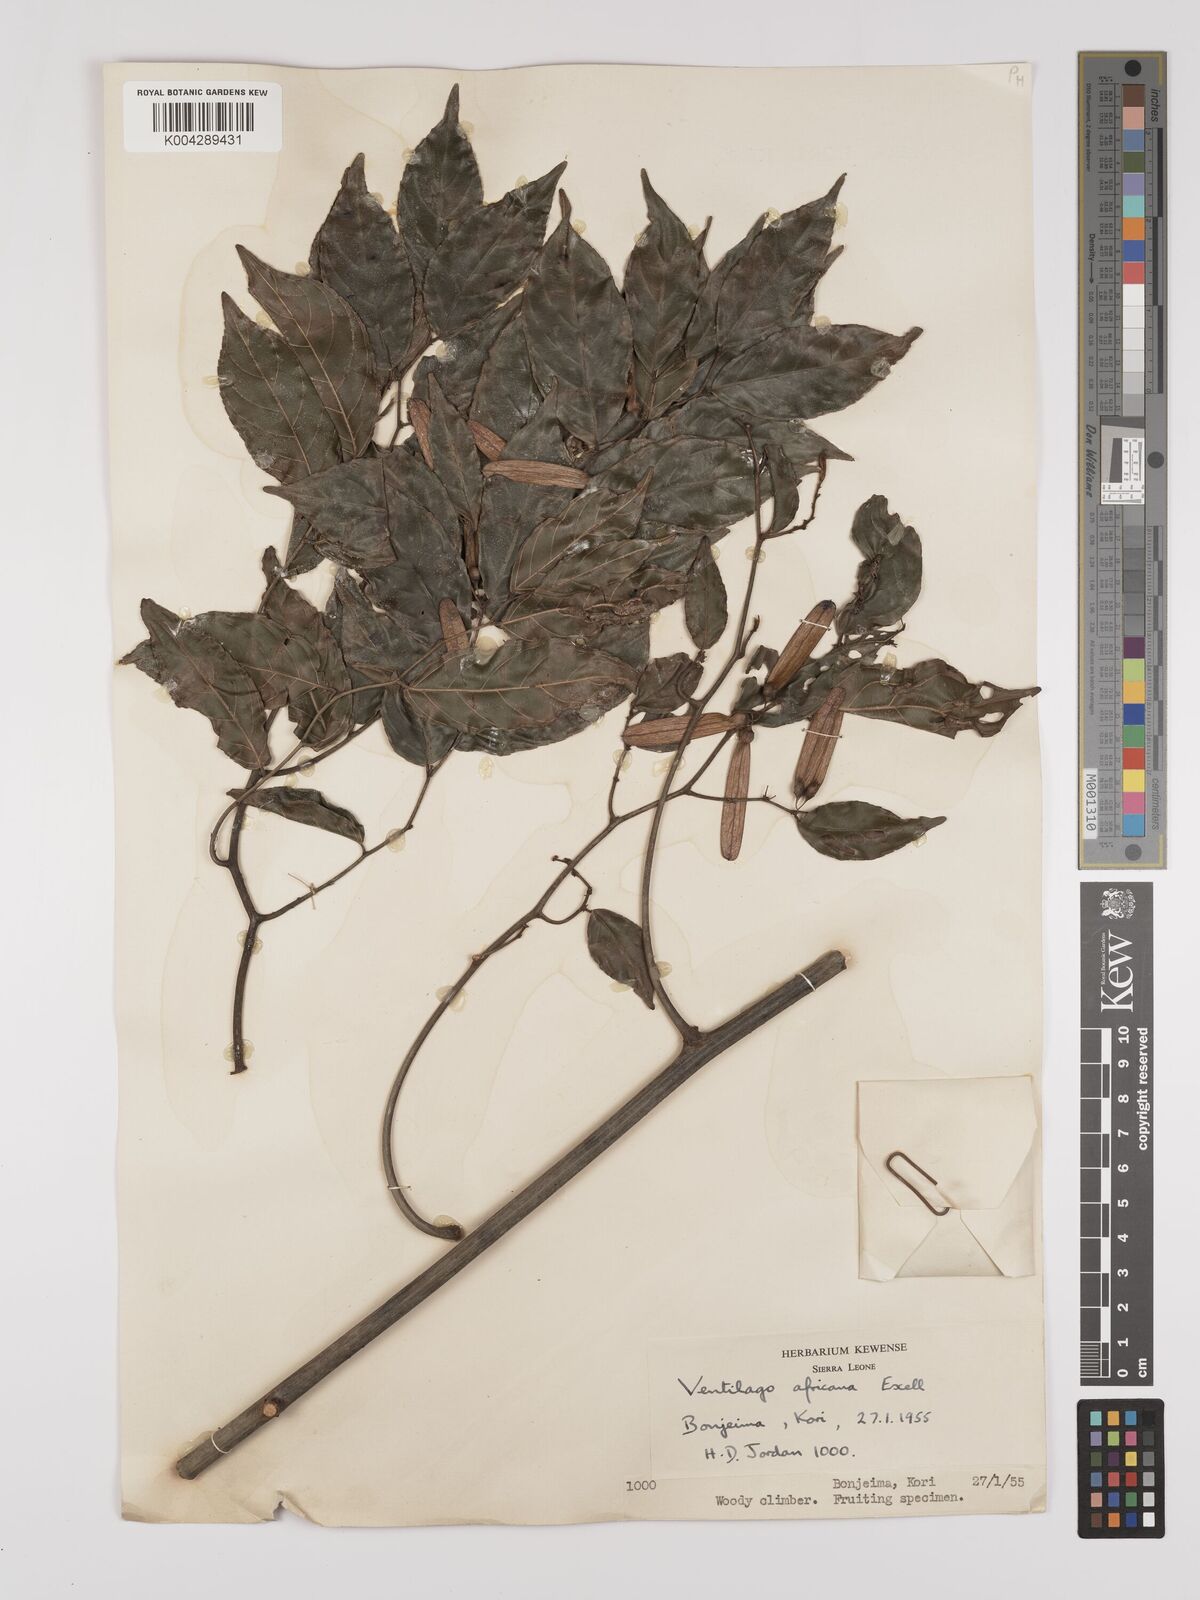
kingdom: Plantae
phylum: Tracheophyta
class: Magnoliopsida
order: Rosales
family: Rhamnaceae
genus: Ventilago
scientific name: Ventilago africana
